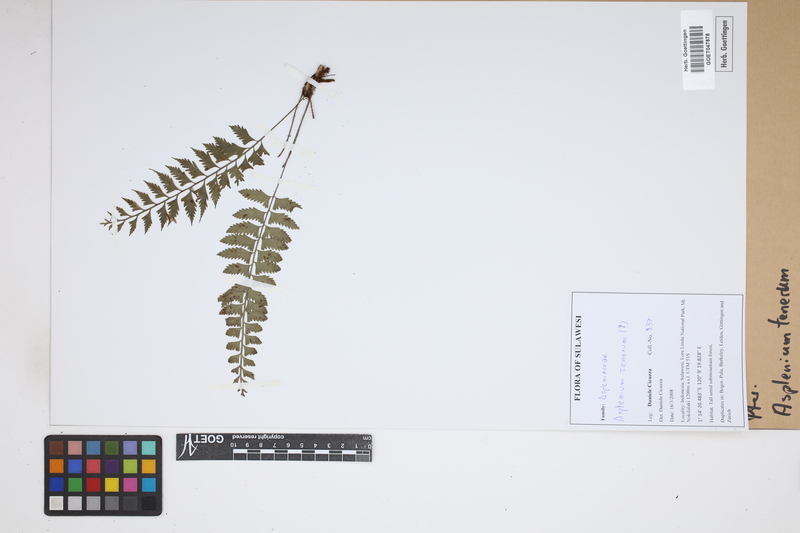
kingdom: Plantae
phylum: Tracheophyta
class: Polypodiopsida
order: Polypodiales
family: Aspleniaceae
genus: Asplenium
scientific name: Asplenium tenerum
